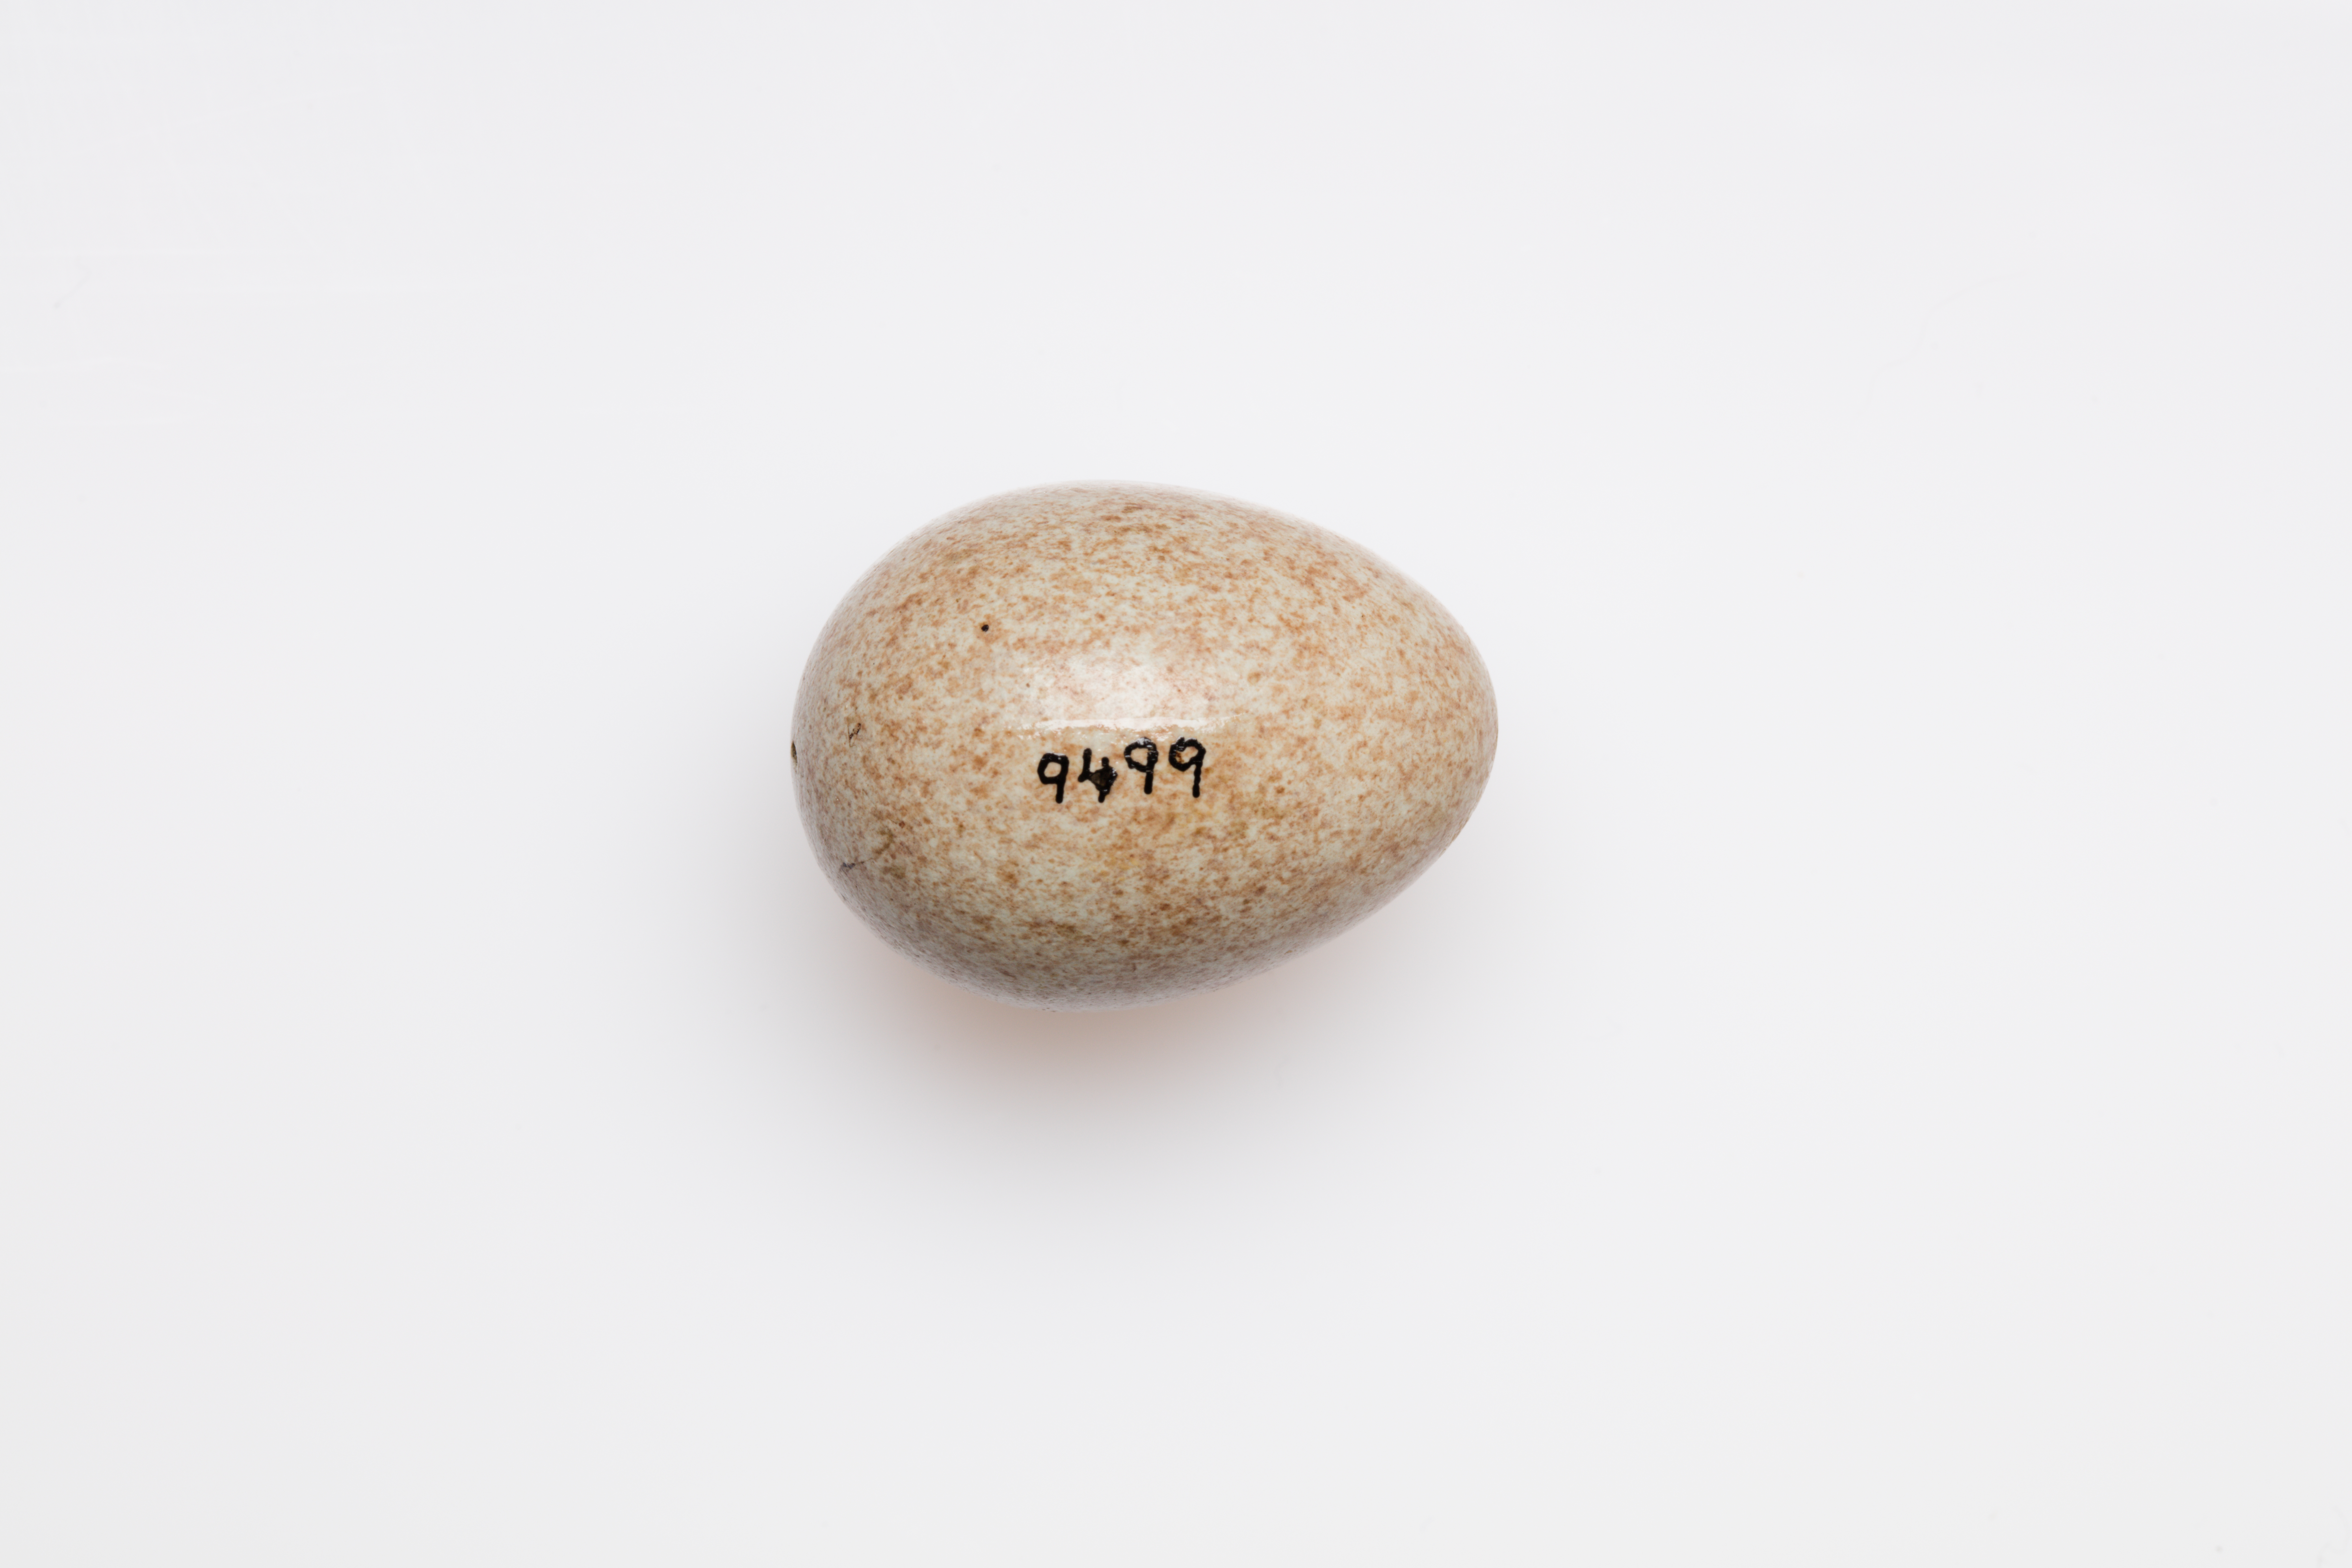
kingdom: Animalia
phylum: Chordata
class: Aves
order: Passeriformes
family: Turdidae
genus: Turdus
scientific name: Turdus merula
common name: Common blackbird
